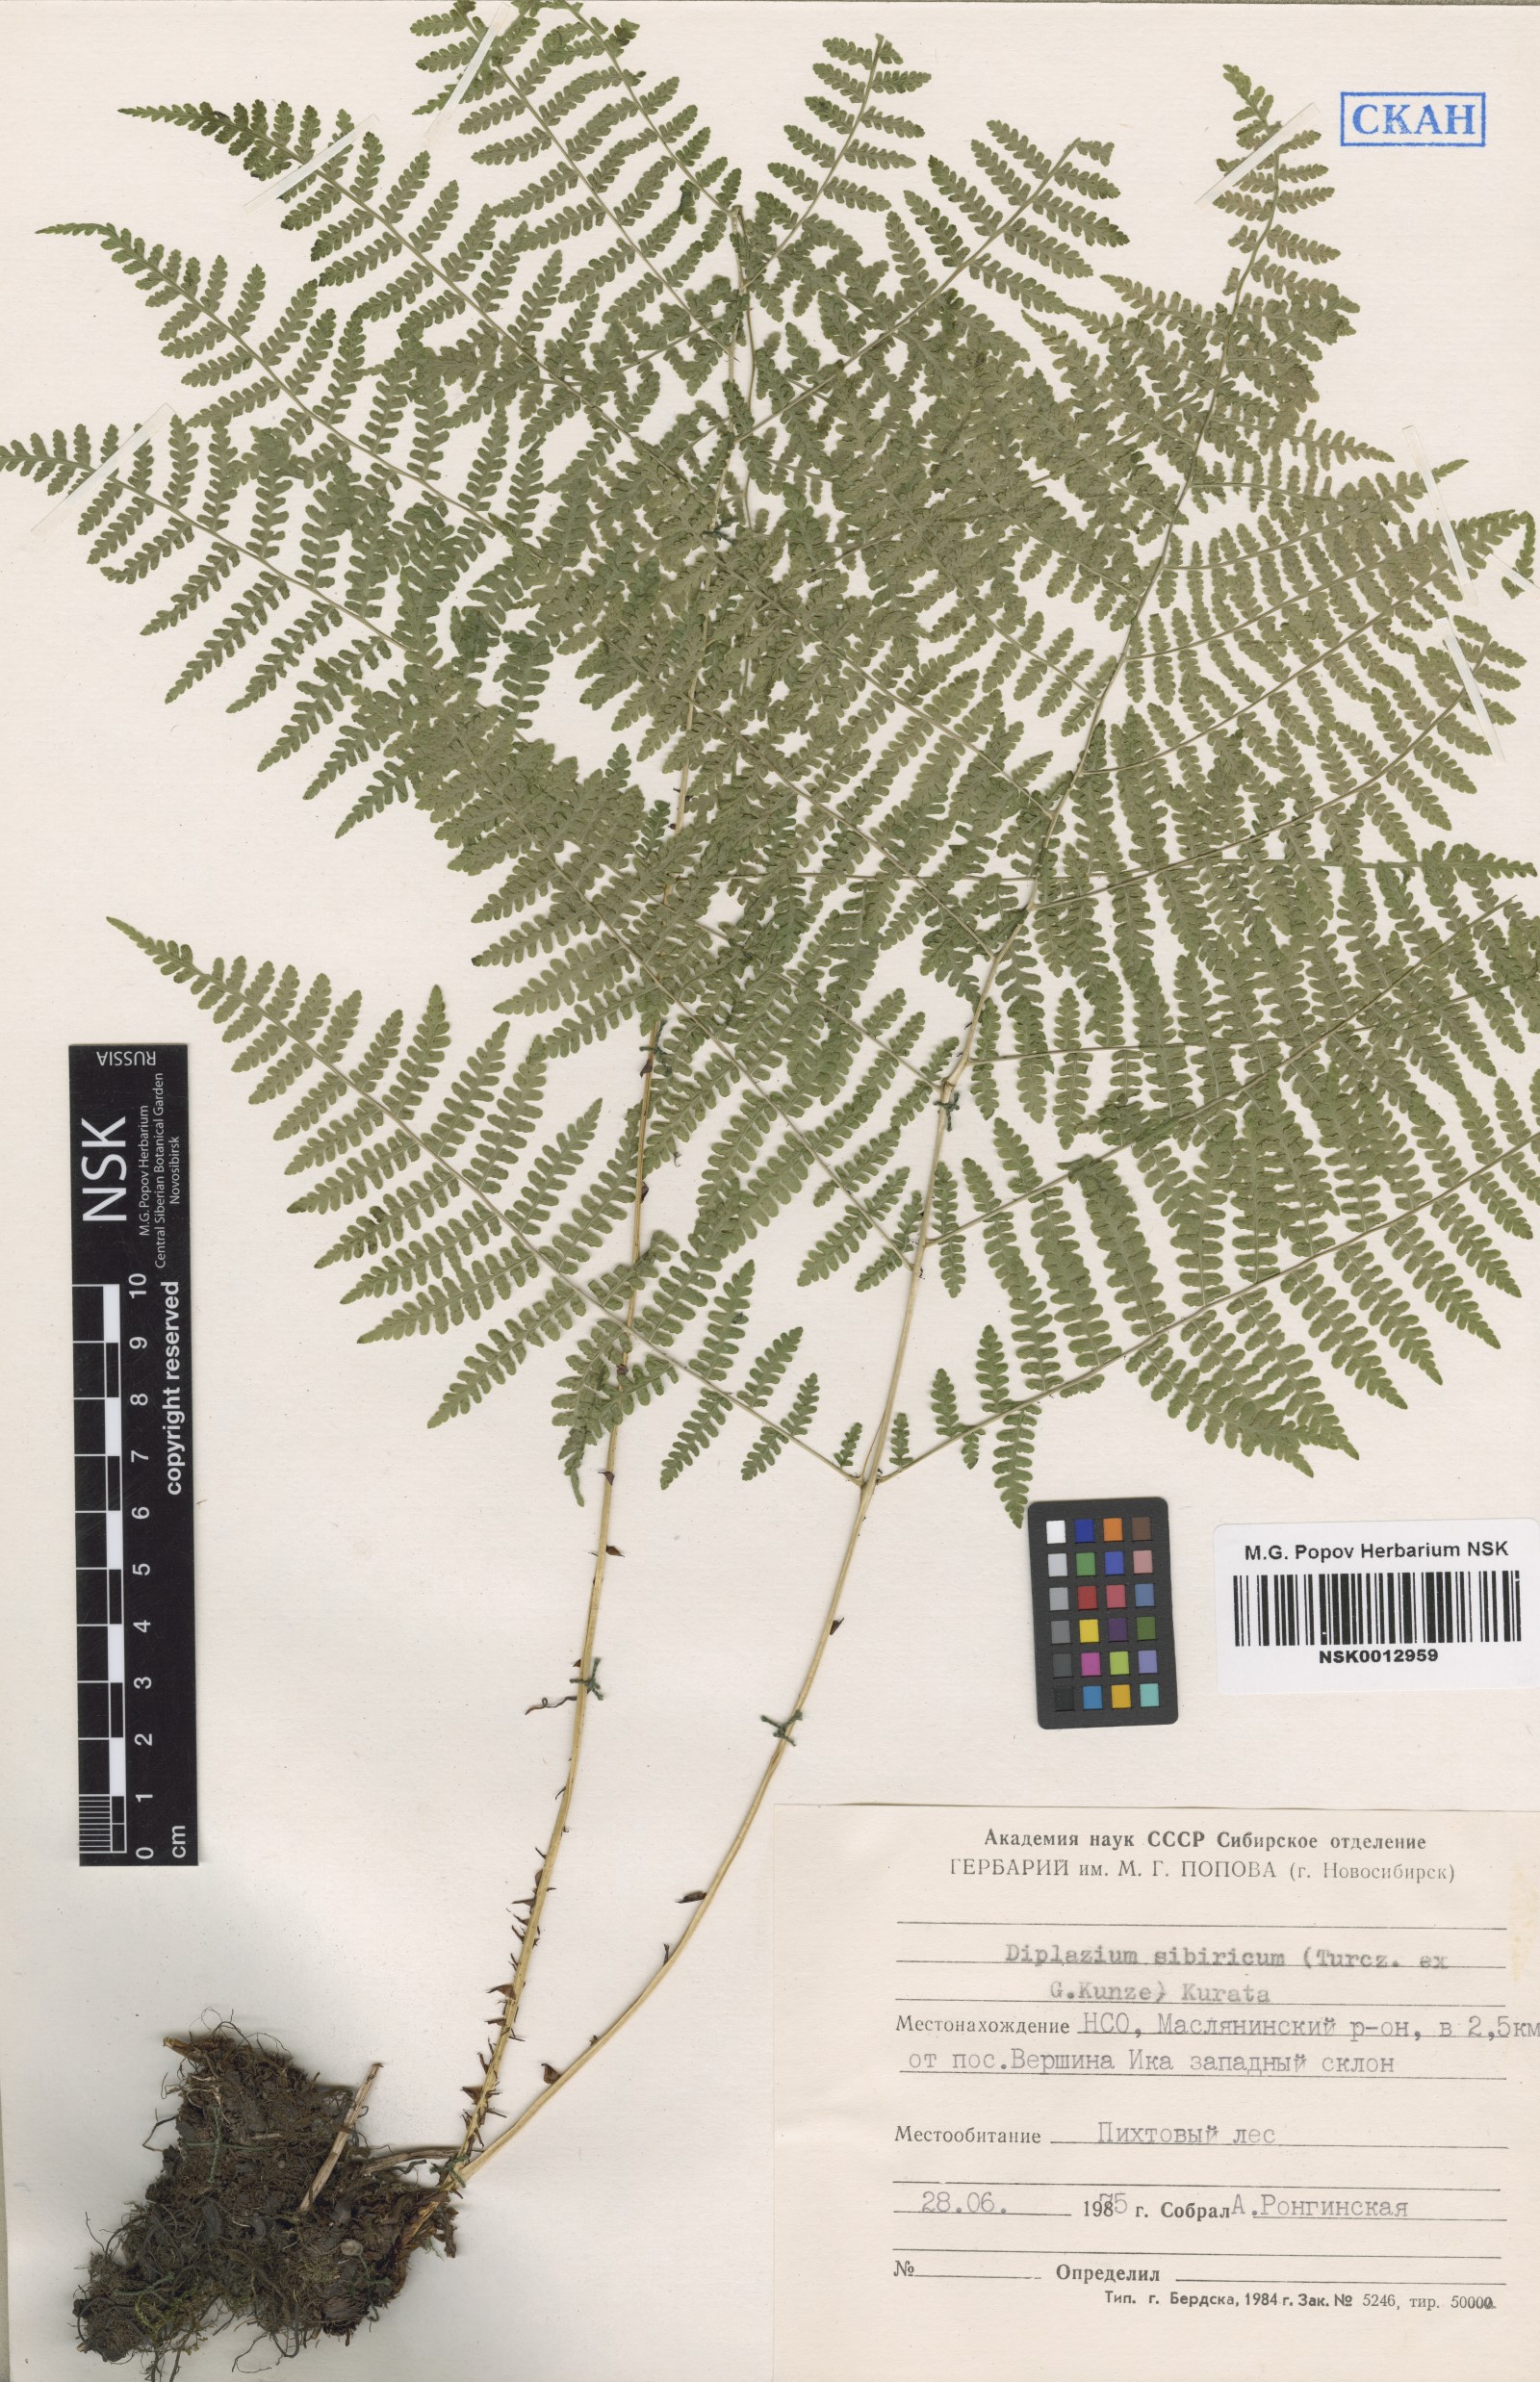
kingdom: Plantae
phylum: Tracheophyta
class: Polypodiopsida
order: Polypodiales
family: Athyriaceae
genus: Diplazium
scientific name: Diplazium sibiricum
